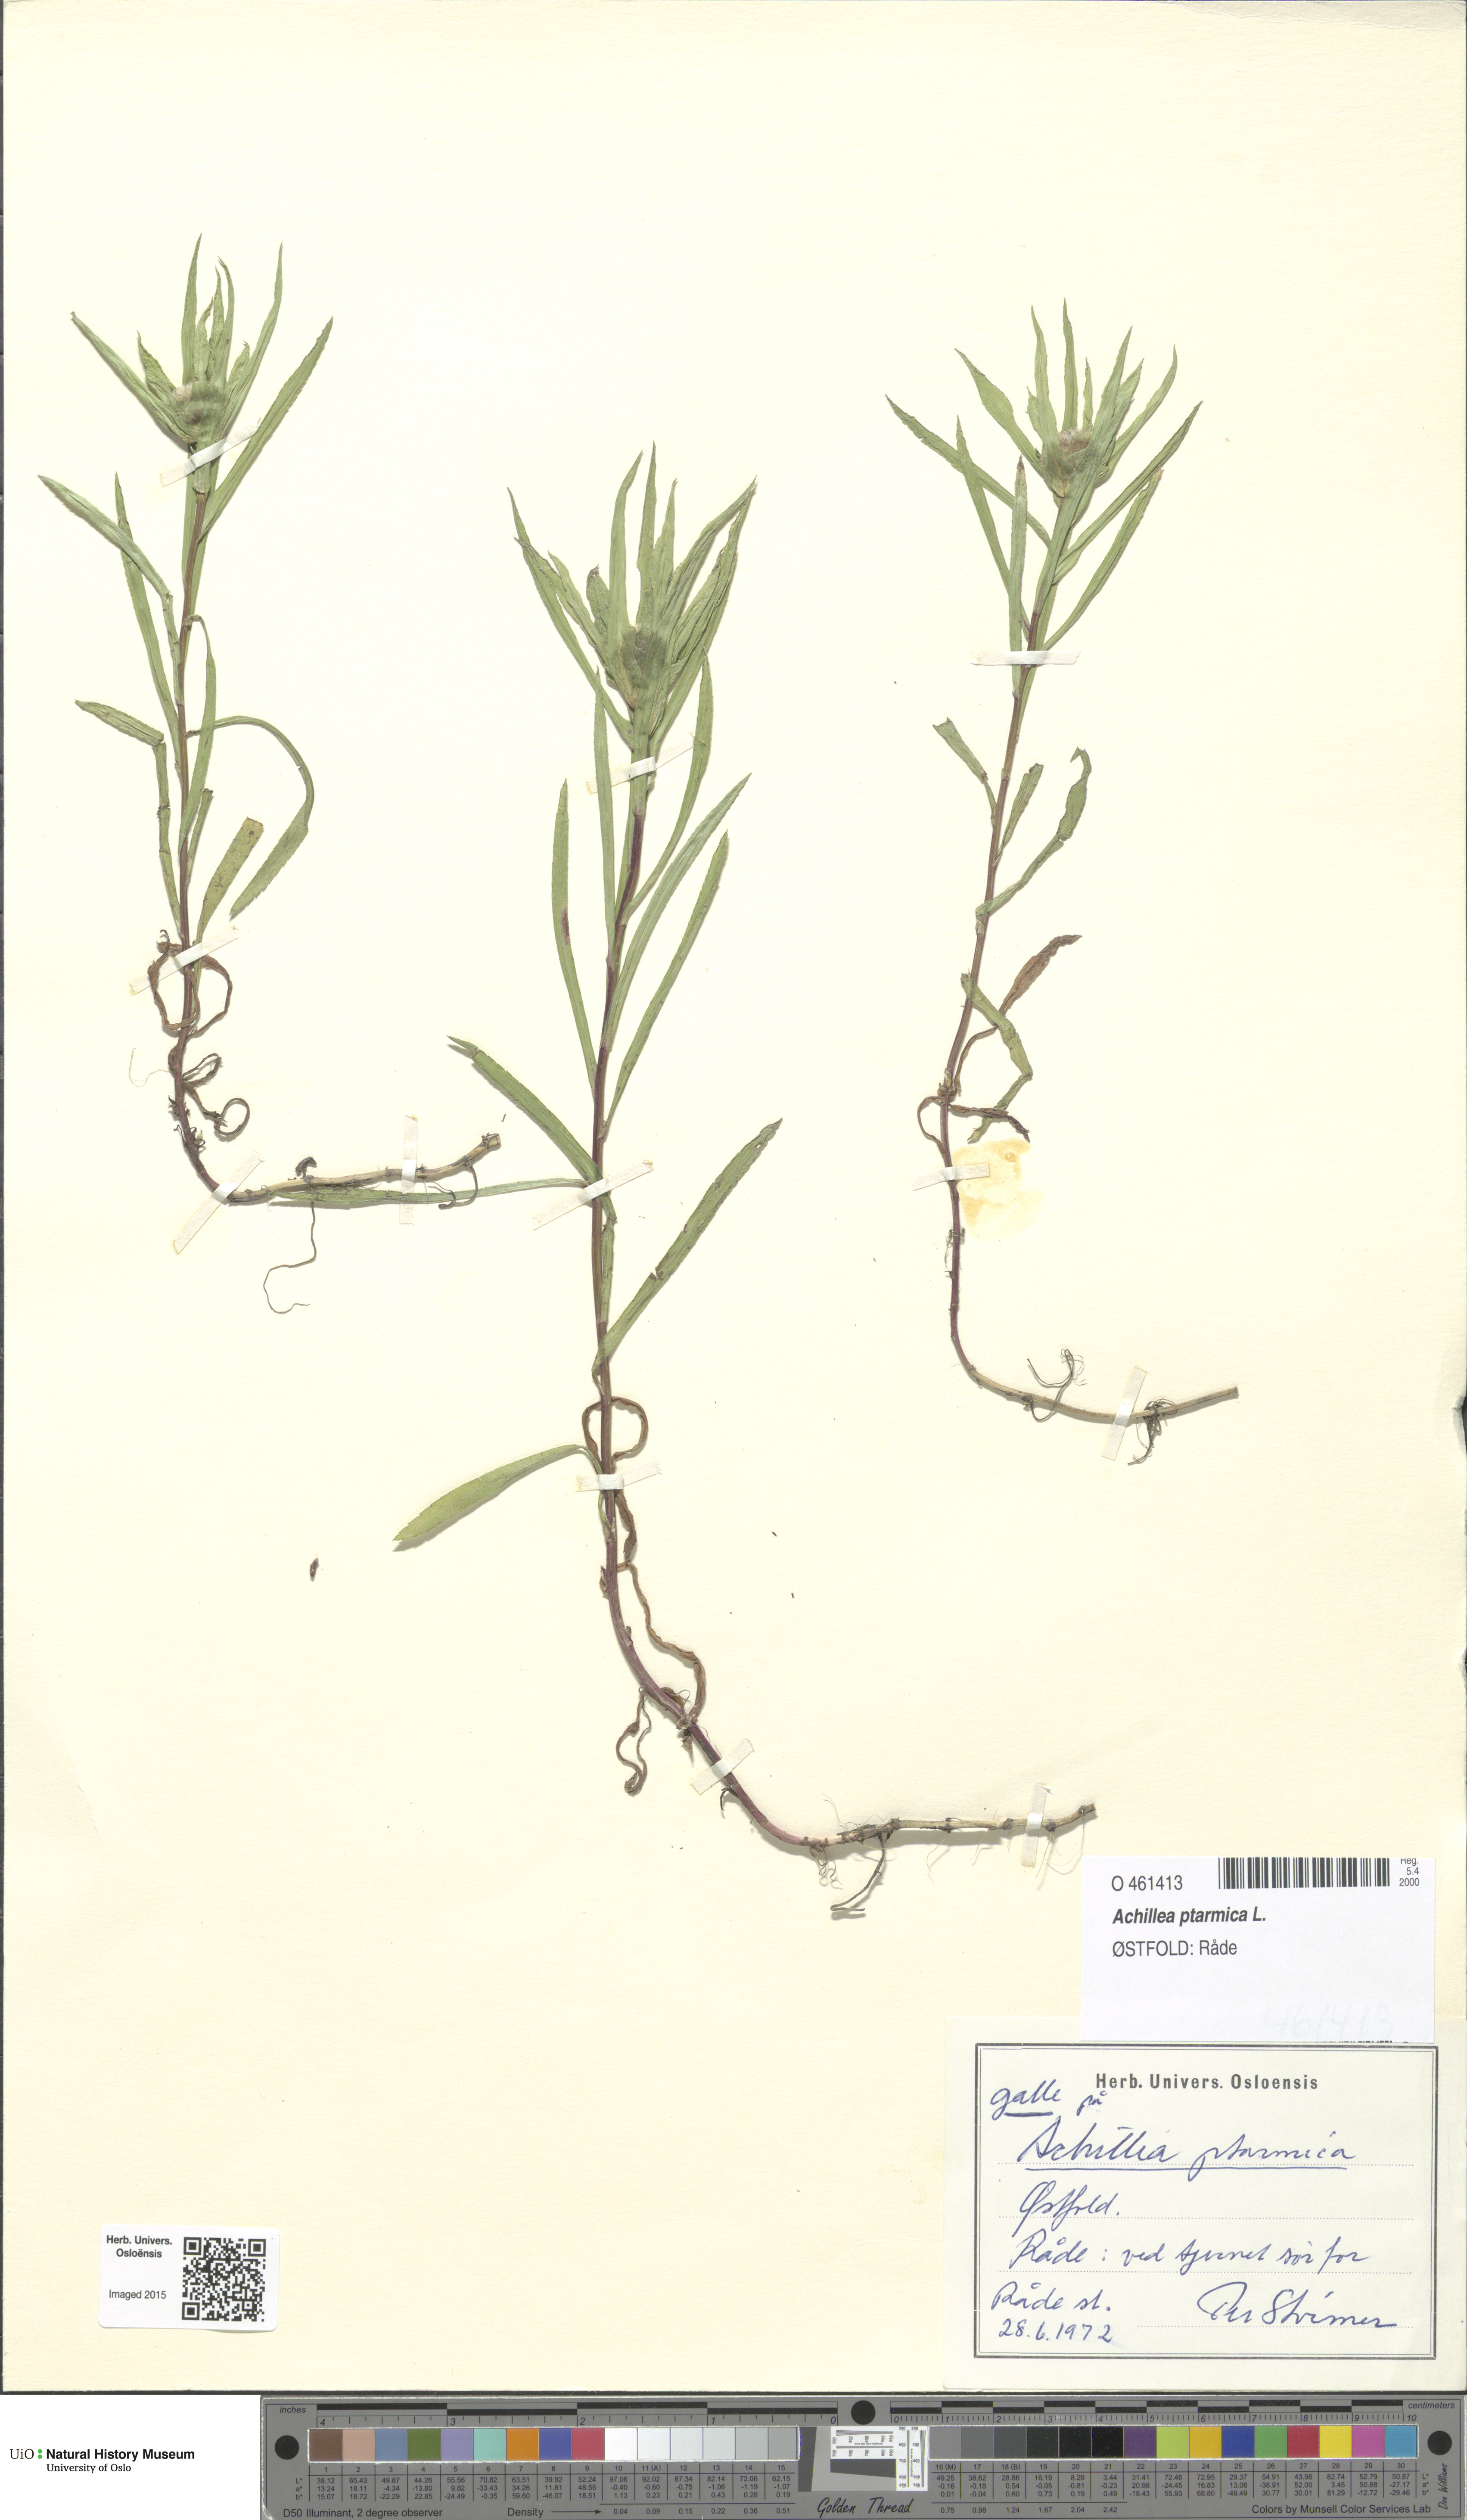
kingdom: Plantae
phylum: Tracheophyta
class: Magnoliopsida
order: Asterales
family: Asteraceae
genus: Achillea
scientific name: Achillea ptarmica
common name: Sneezeweed
